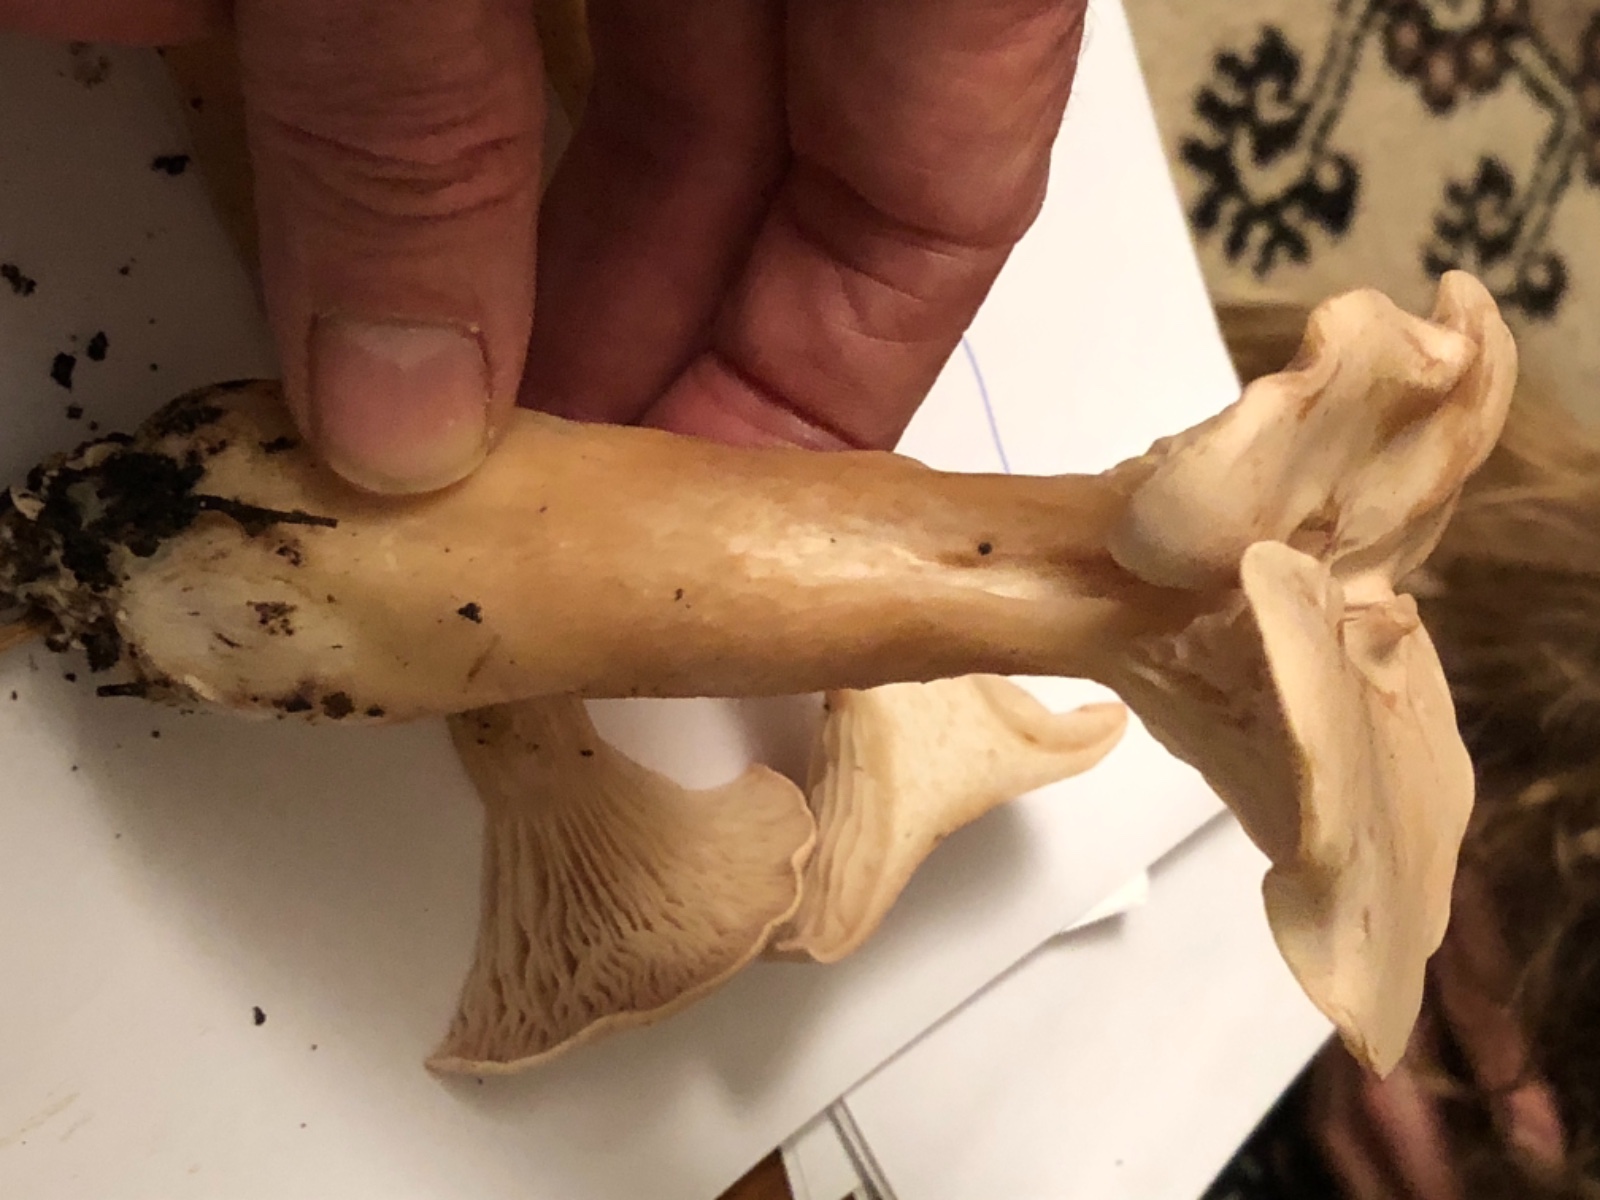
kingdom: Fungi
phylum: Basidiomycota
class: Agaricomycetes
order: Agaricales
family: Tricholomataceae
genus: Infundibulicybe
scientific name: Infundibulicybe geotropa
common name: stor tragthat
